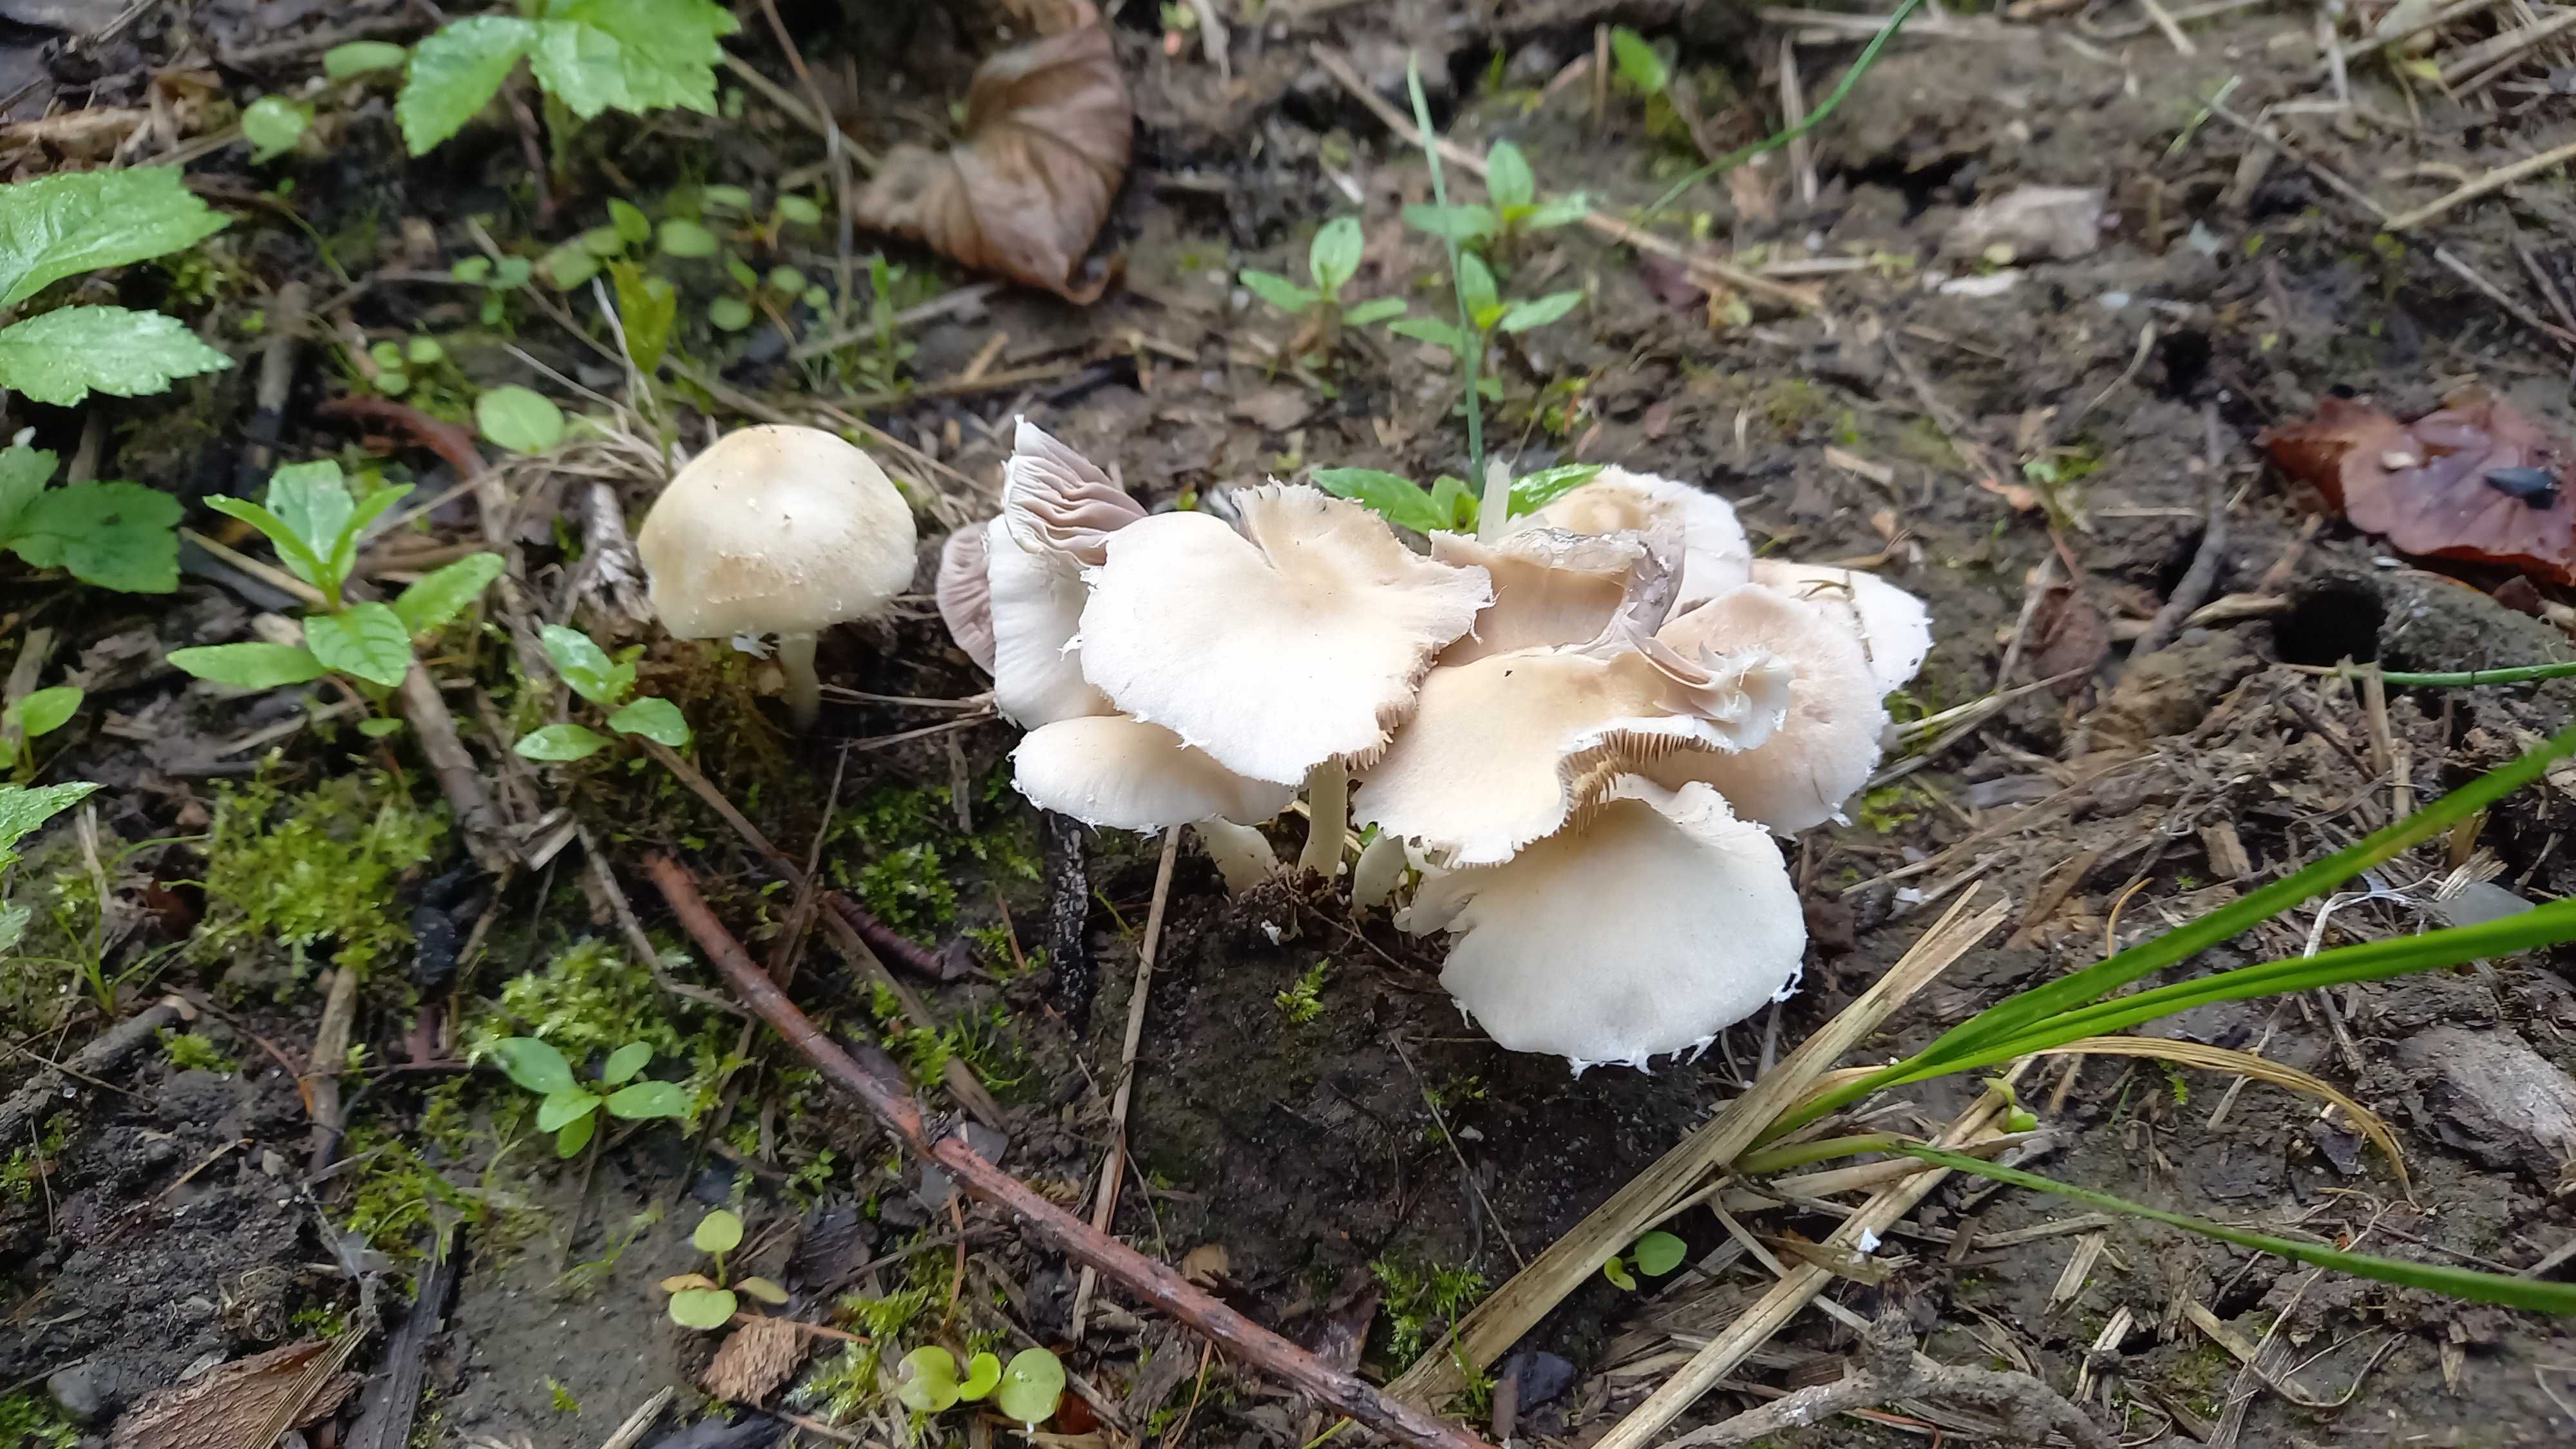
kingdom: Fungi
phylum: Basidiomycota
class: Agaricomycetes
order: Agaricales
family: Psathyrellaceae
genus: Candolleomyces
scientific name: Candolleomyces candolleanus
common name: Candolles mørkhat
